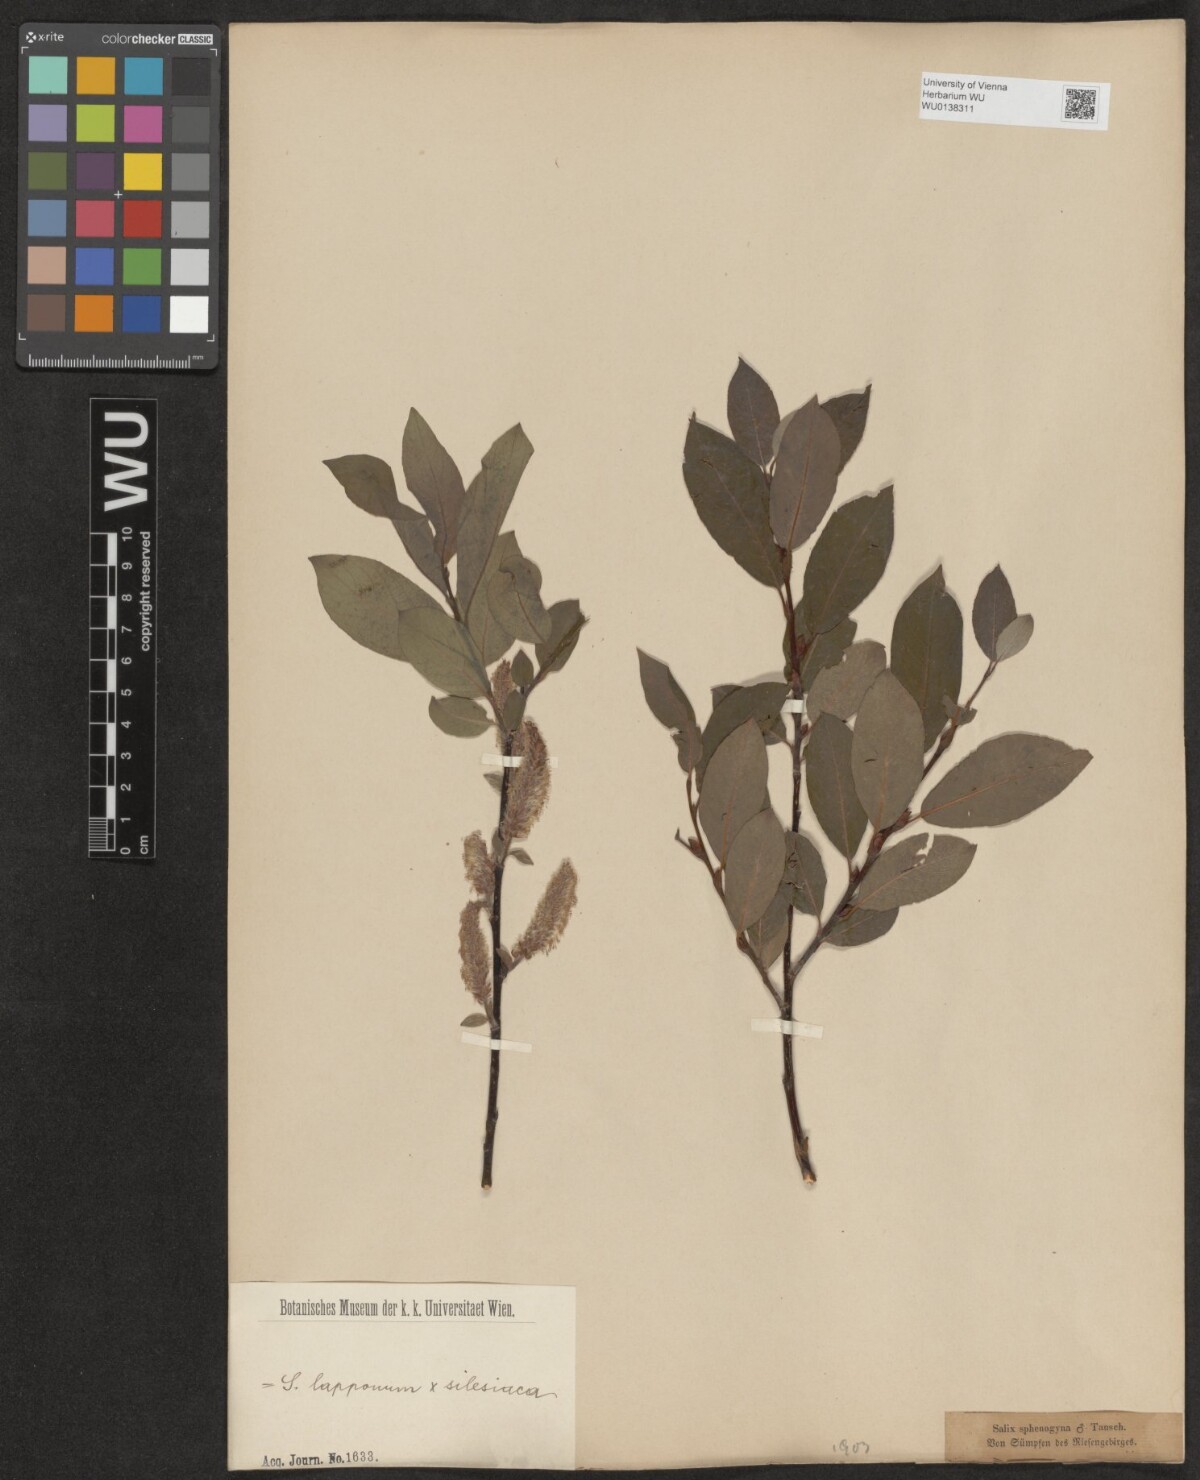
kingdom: Plantae
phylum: Tracheophyta
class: Magnoliopsida
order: Malpighiales
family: Salicaceae
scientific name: Salicaceae
